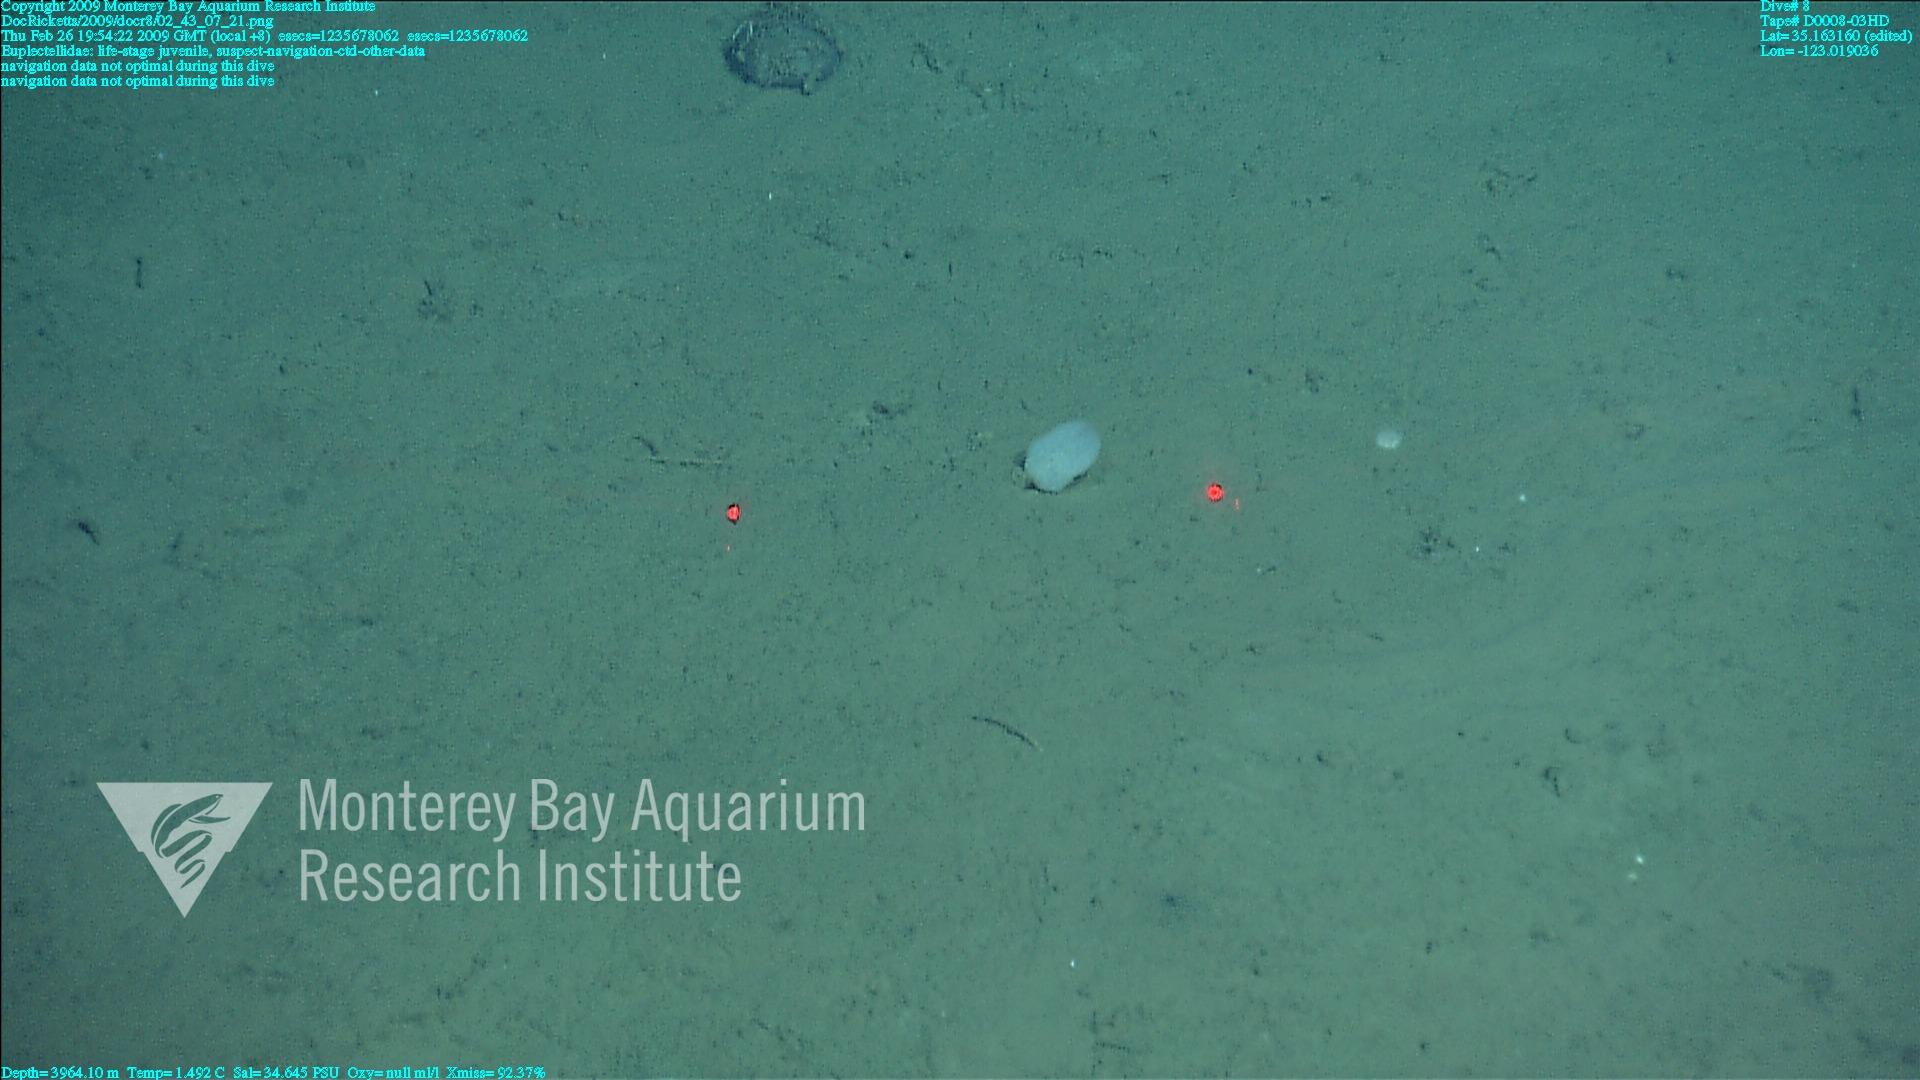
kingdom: Animalia
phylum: Porifera
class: Hexactinellida
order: Lyssacinosida
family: Euplectellidae
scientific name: Euplectellidae
